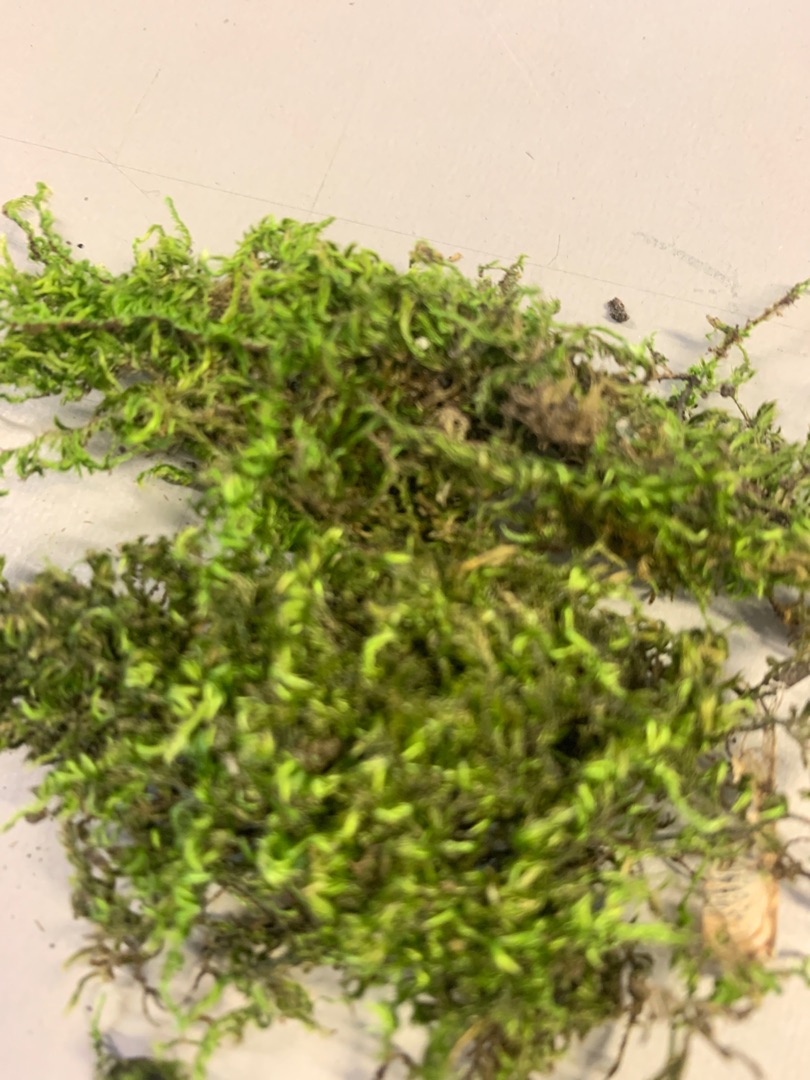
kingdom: Plantae
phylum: Bryophyta
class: Bryopsida
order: Hypnales
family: Brachytheciaceae
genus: Homalothecium
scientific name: Homalothecium sericeum
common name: Krybende silkemos
